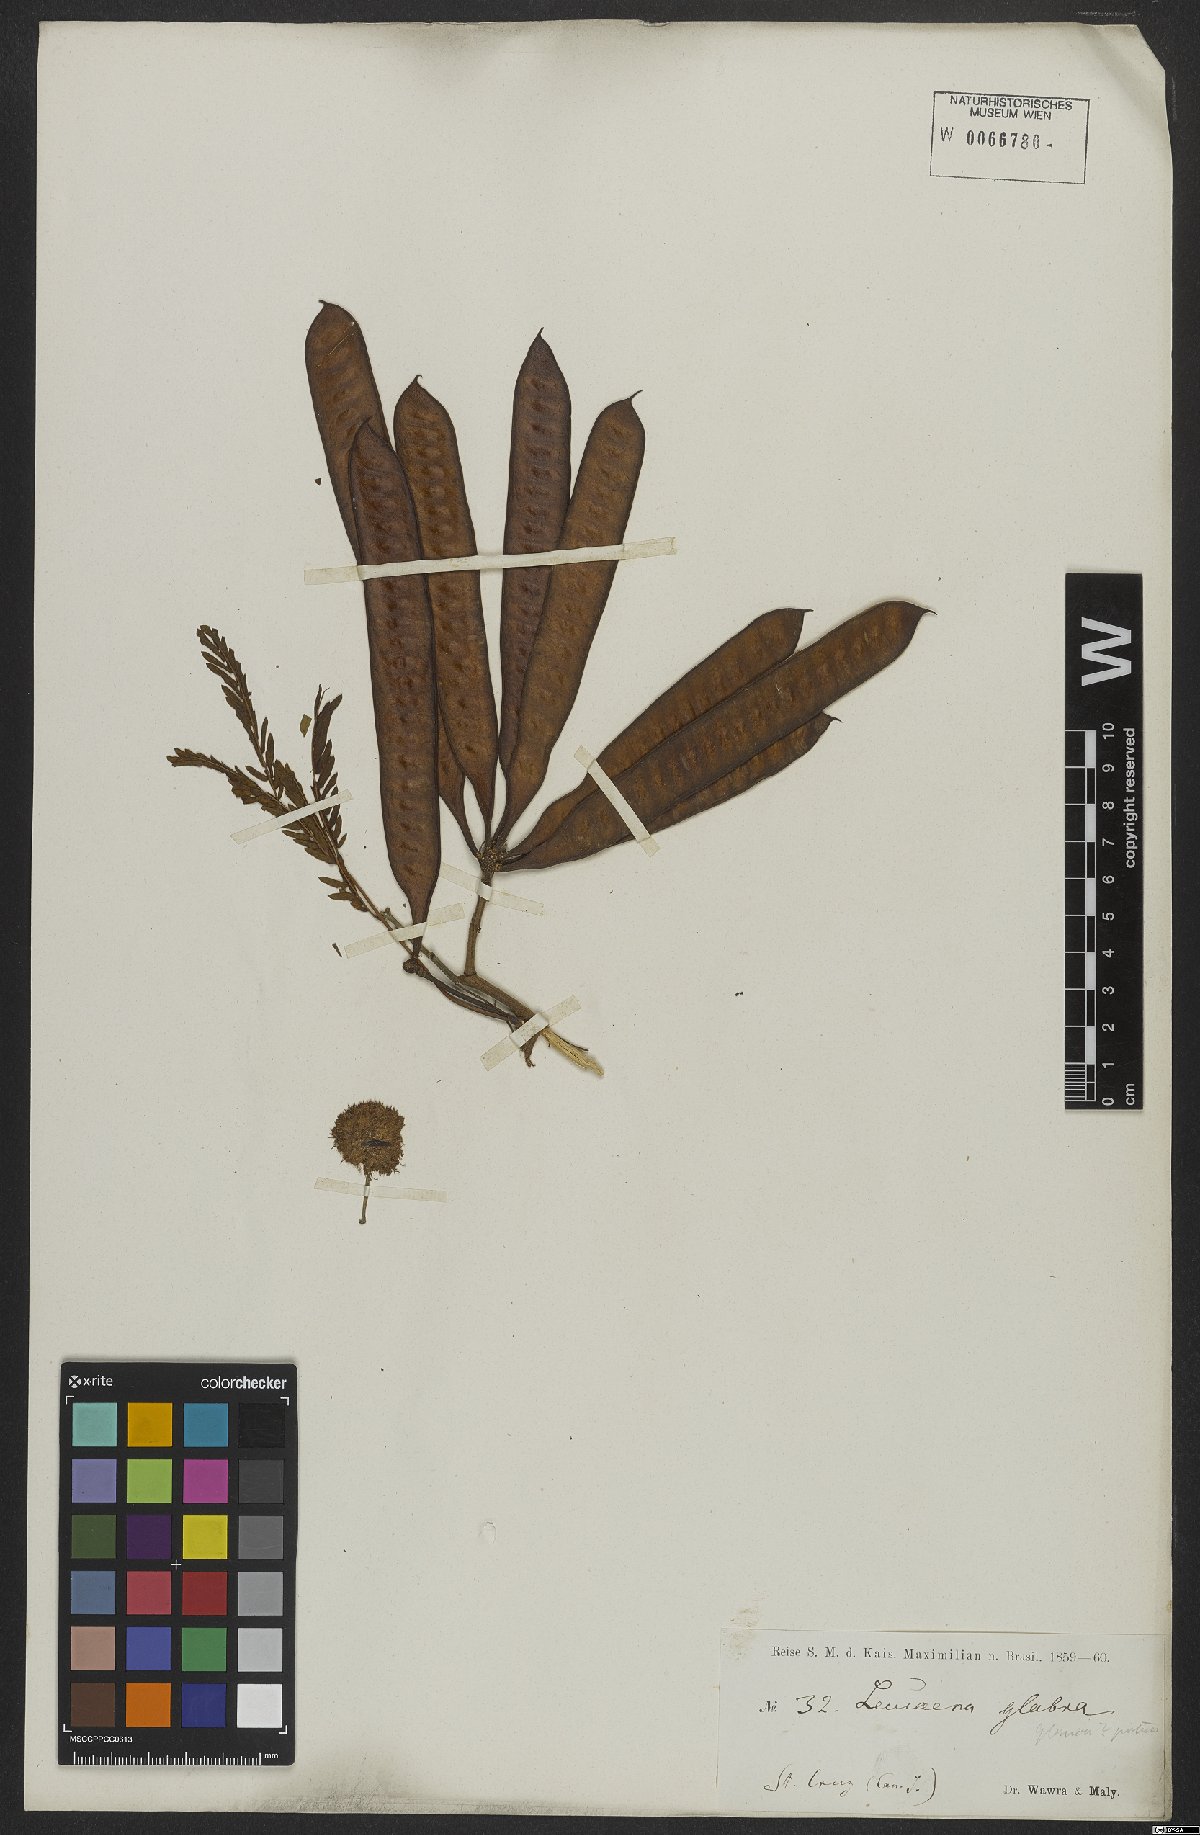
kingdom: Plantae
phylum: Tracheophyta
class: Magnoliopsida
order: Fabales
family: Fabaceae
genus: Acaciella
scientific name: Acaciella glauca
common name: Redwood
